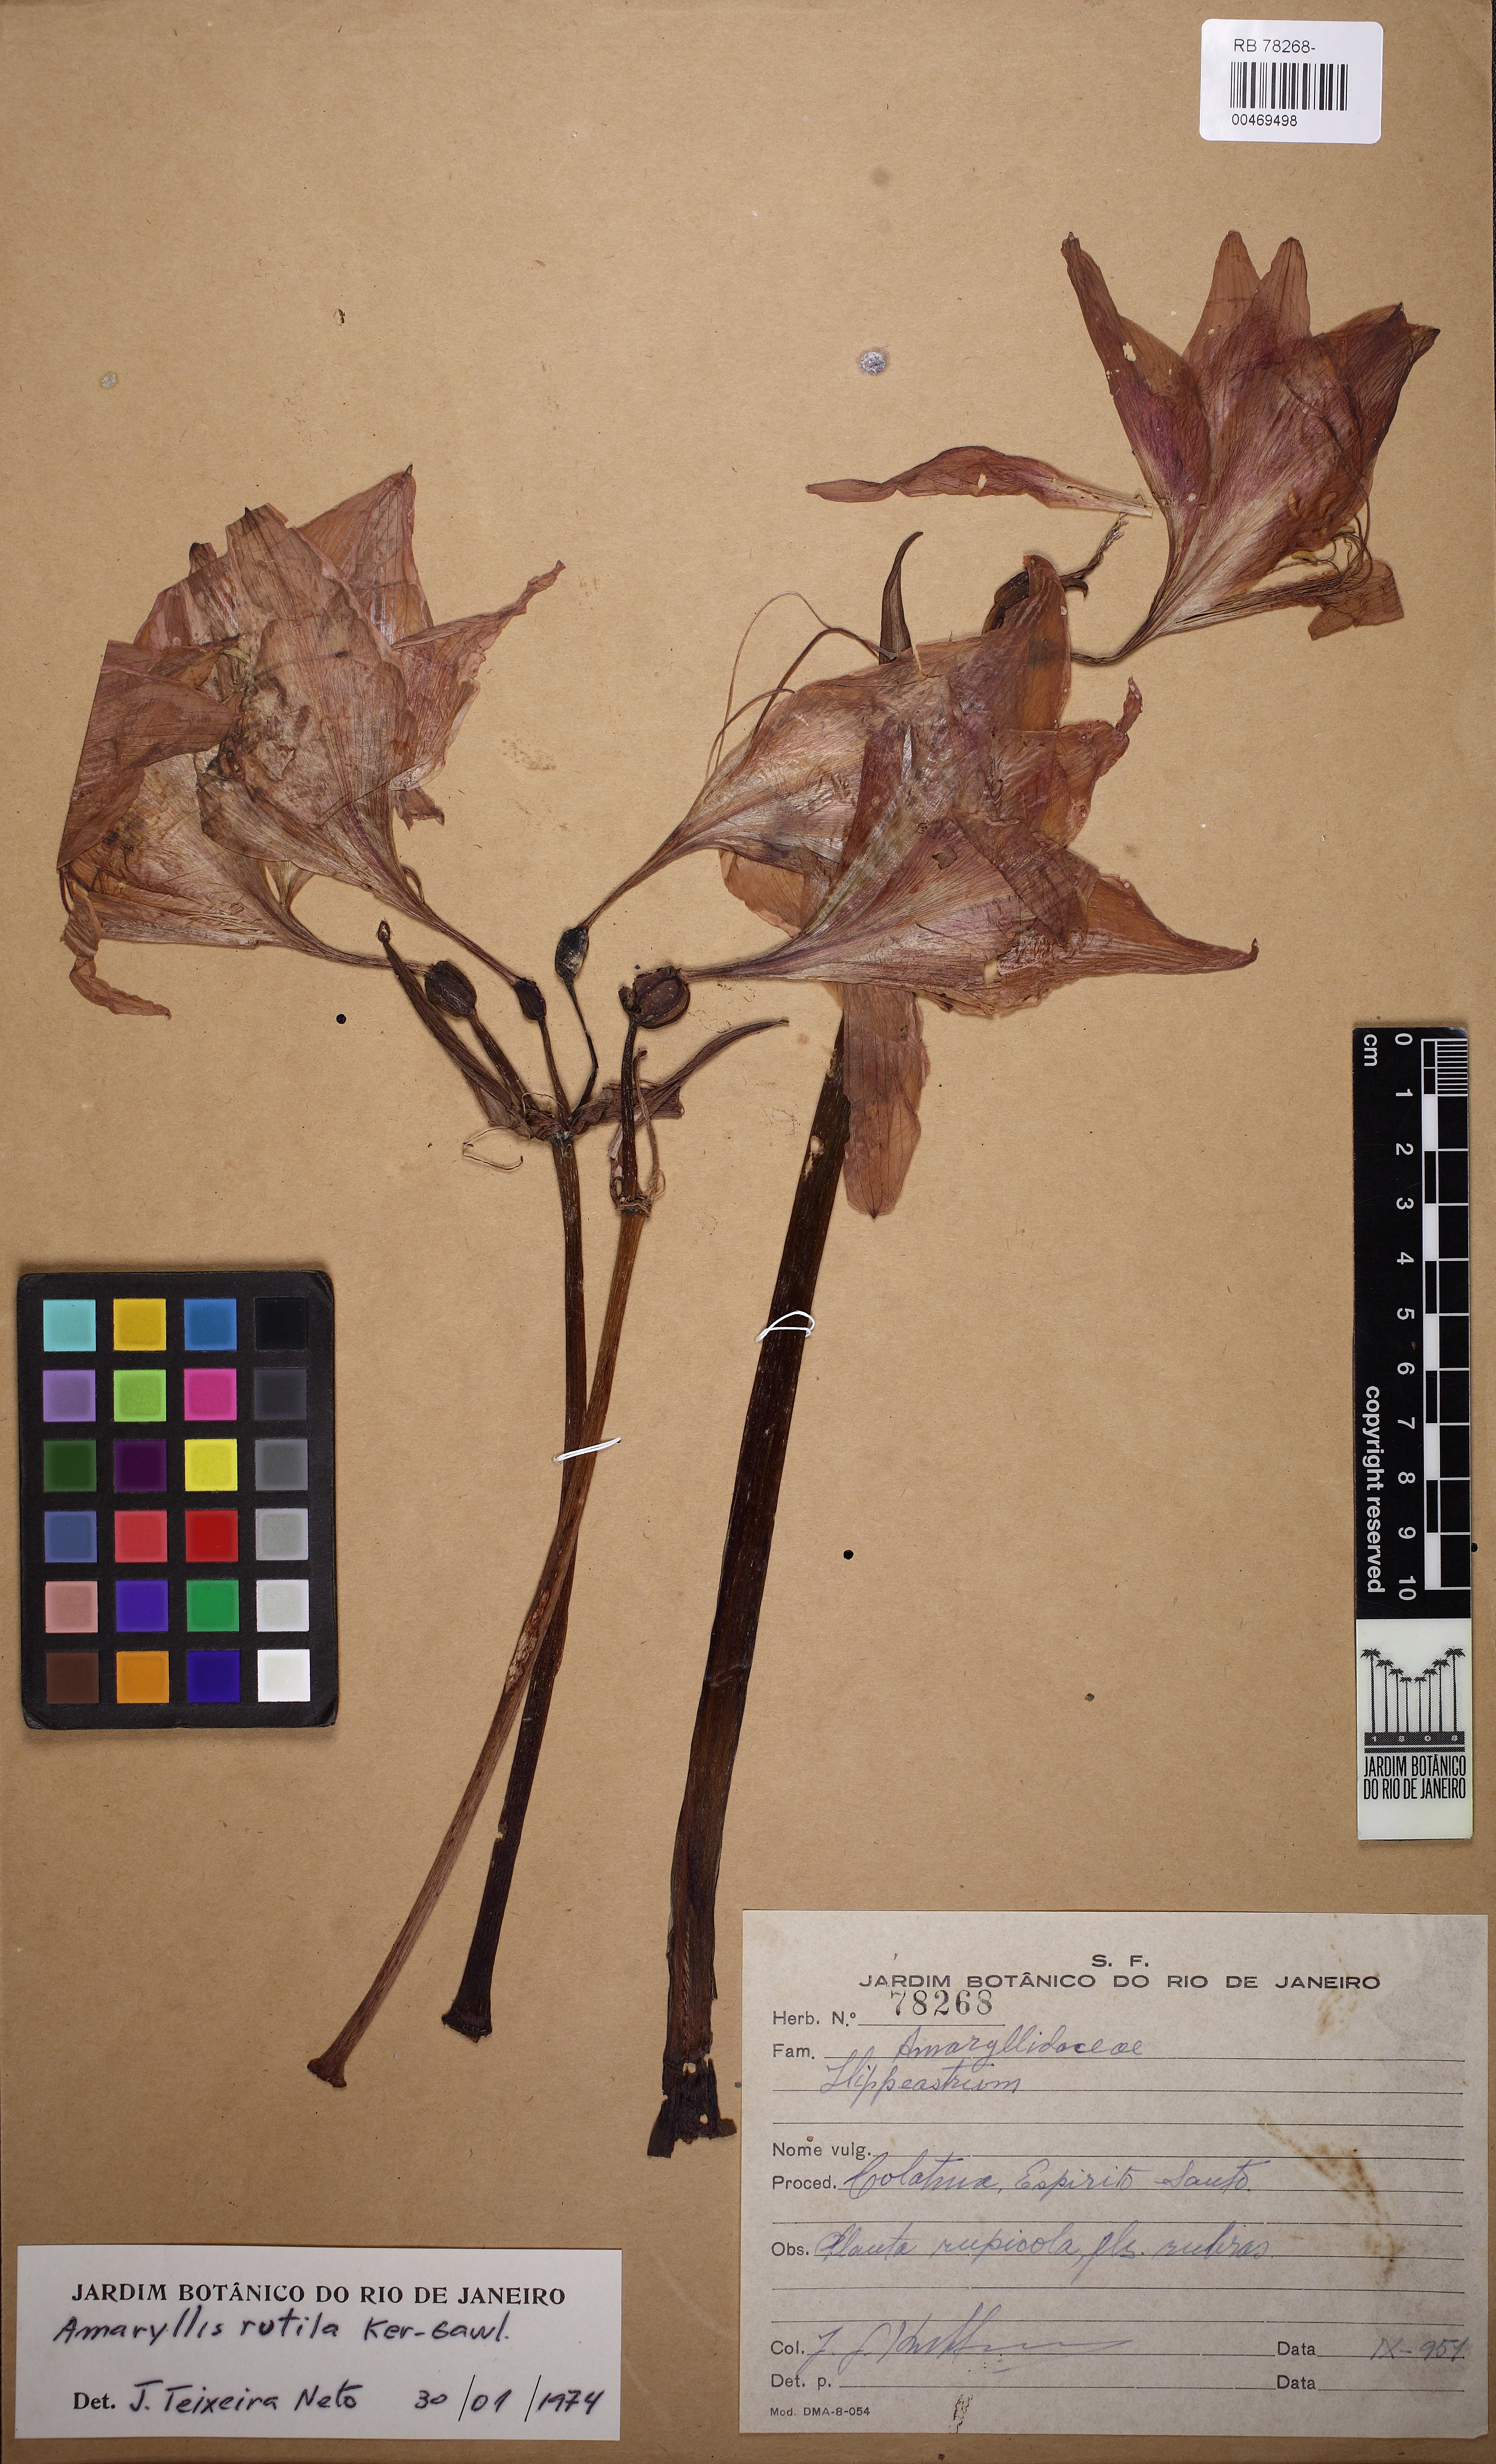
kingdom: Plantae
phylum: Tracheophyta
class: Liliopsida
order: Asparagales
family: Amaryllidaceae
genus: Hippeastrum
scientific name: Hippeastrum puniceum
